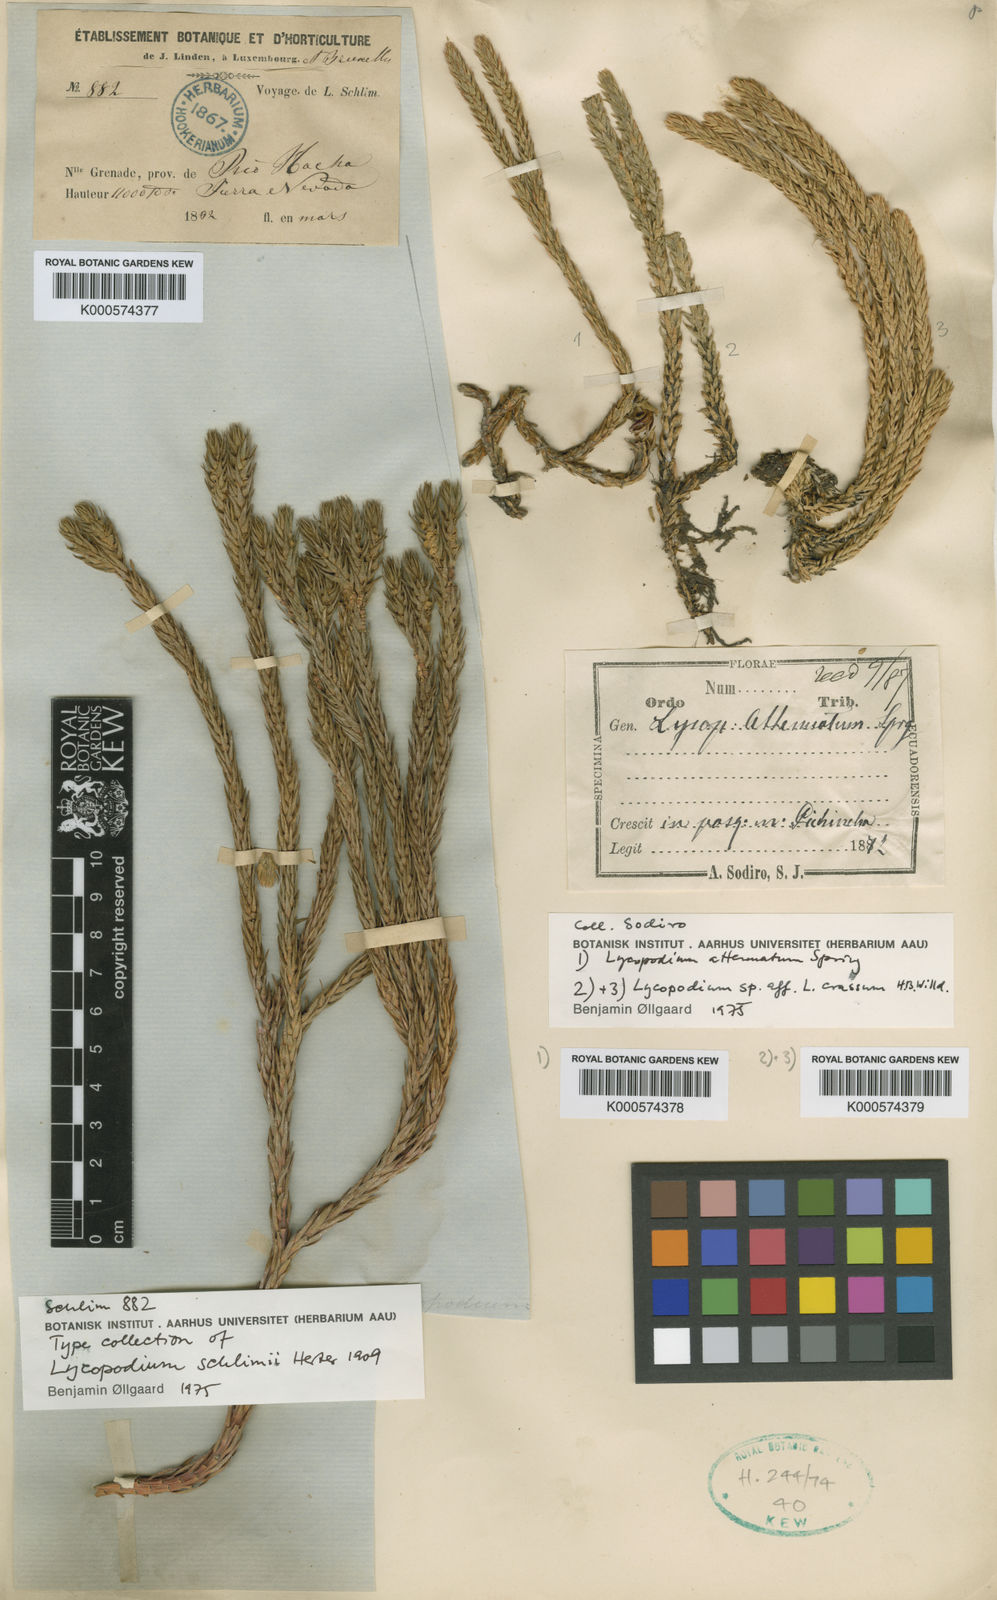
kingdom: Plantae
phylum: Tracheophyta
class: Lycopodiopsida
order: Lycopodiales
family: Lycopodiaceae
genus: Phlegmariurus
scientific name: Phlegmariurus schlimii
